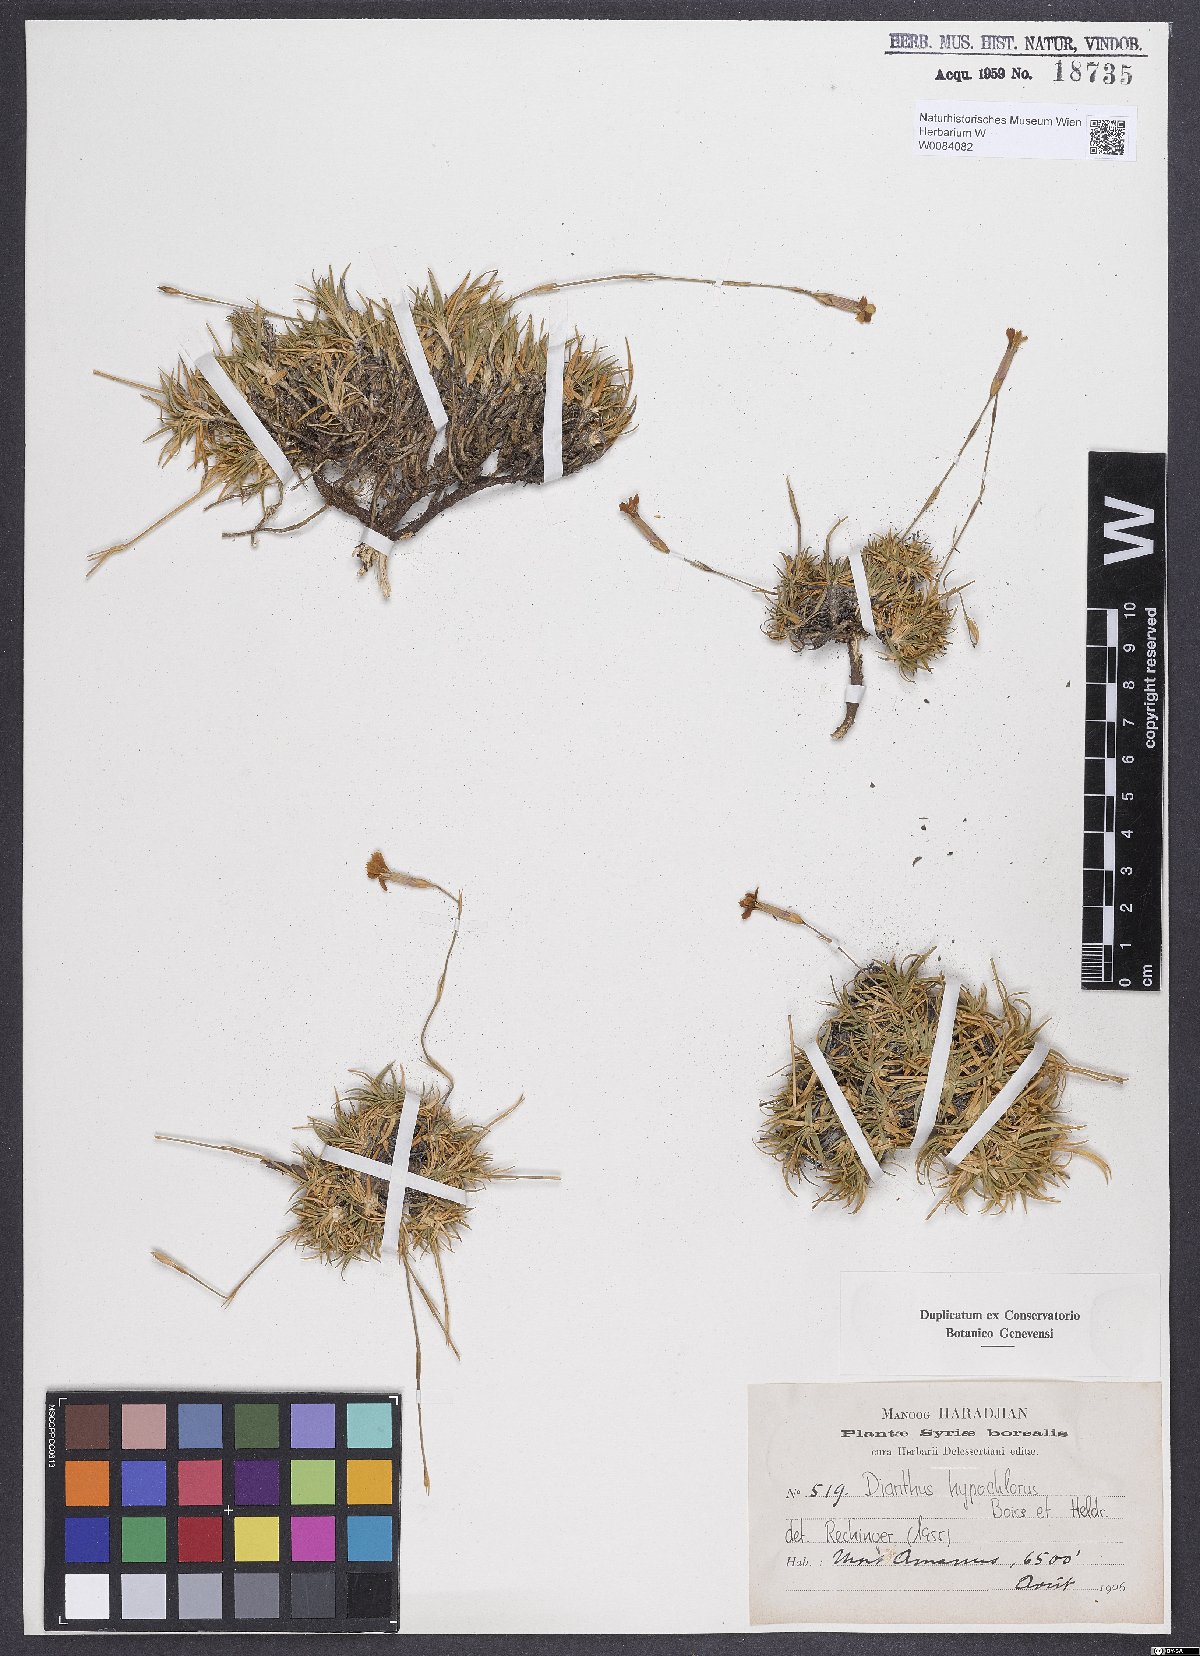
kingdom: Plantae
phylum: Tracheophyta
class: Magnoliopsida
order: Caryophyllales
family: Caryophyllaceae
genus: Dianthus
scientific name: Dianthus zonatus
